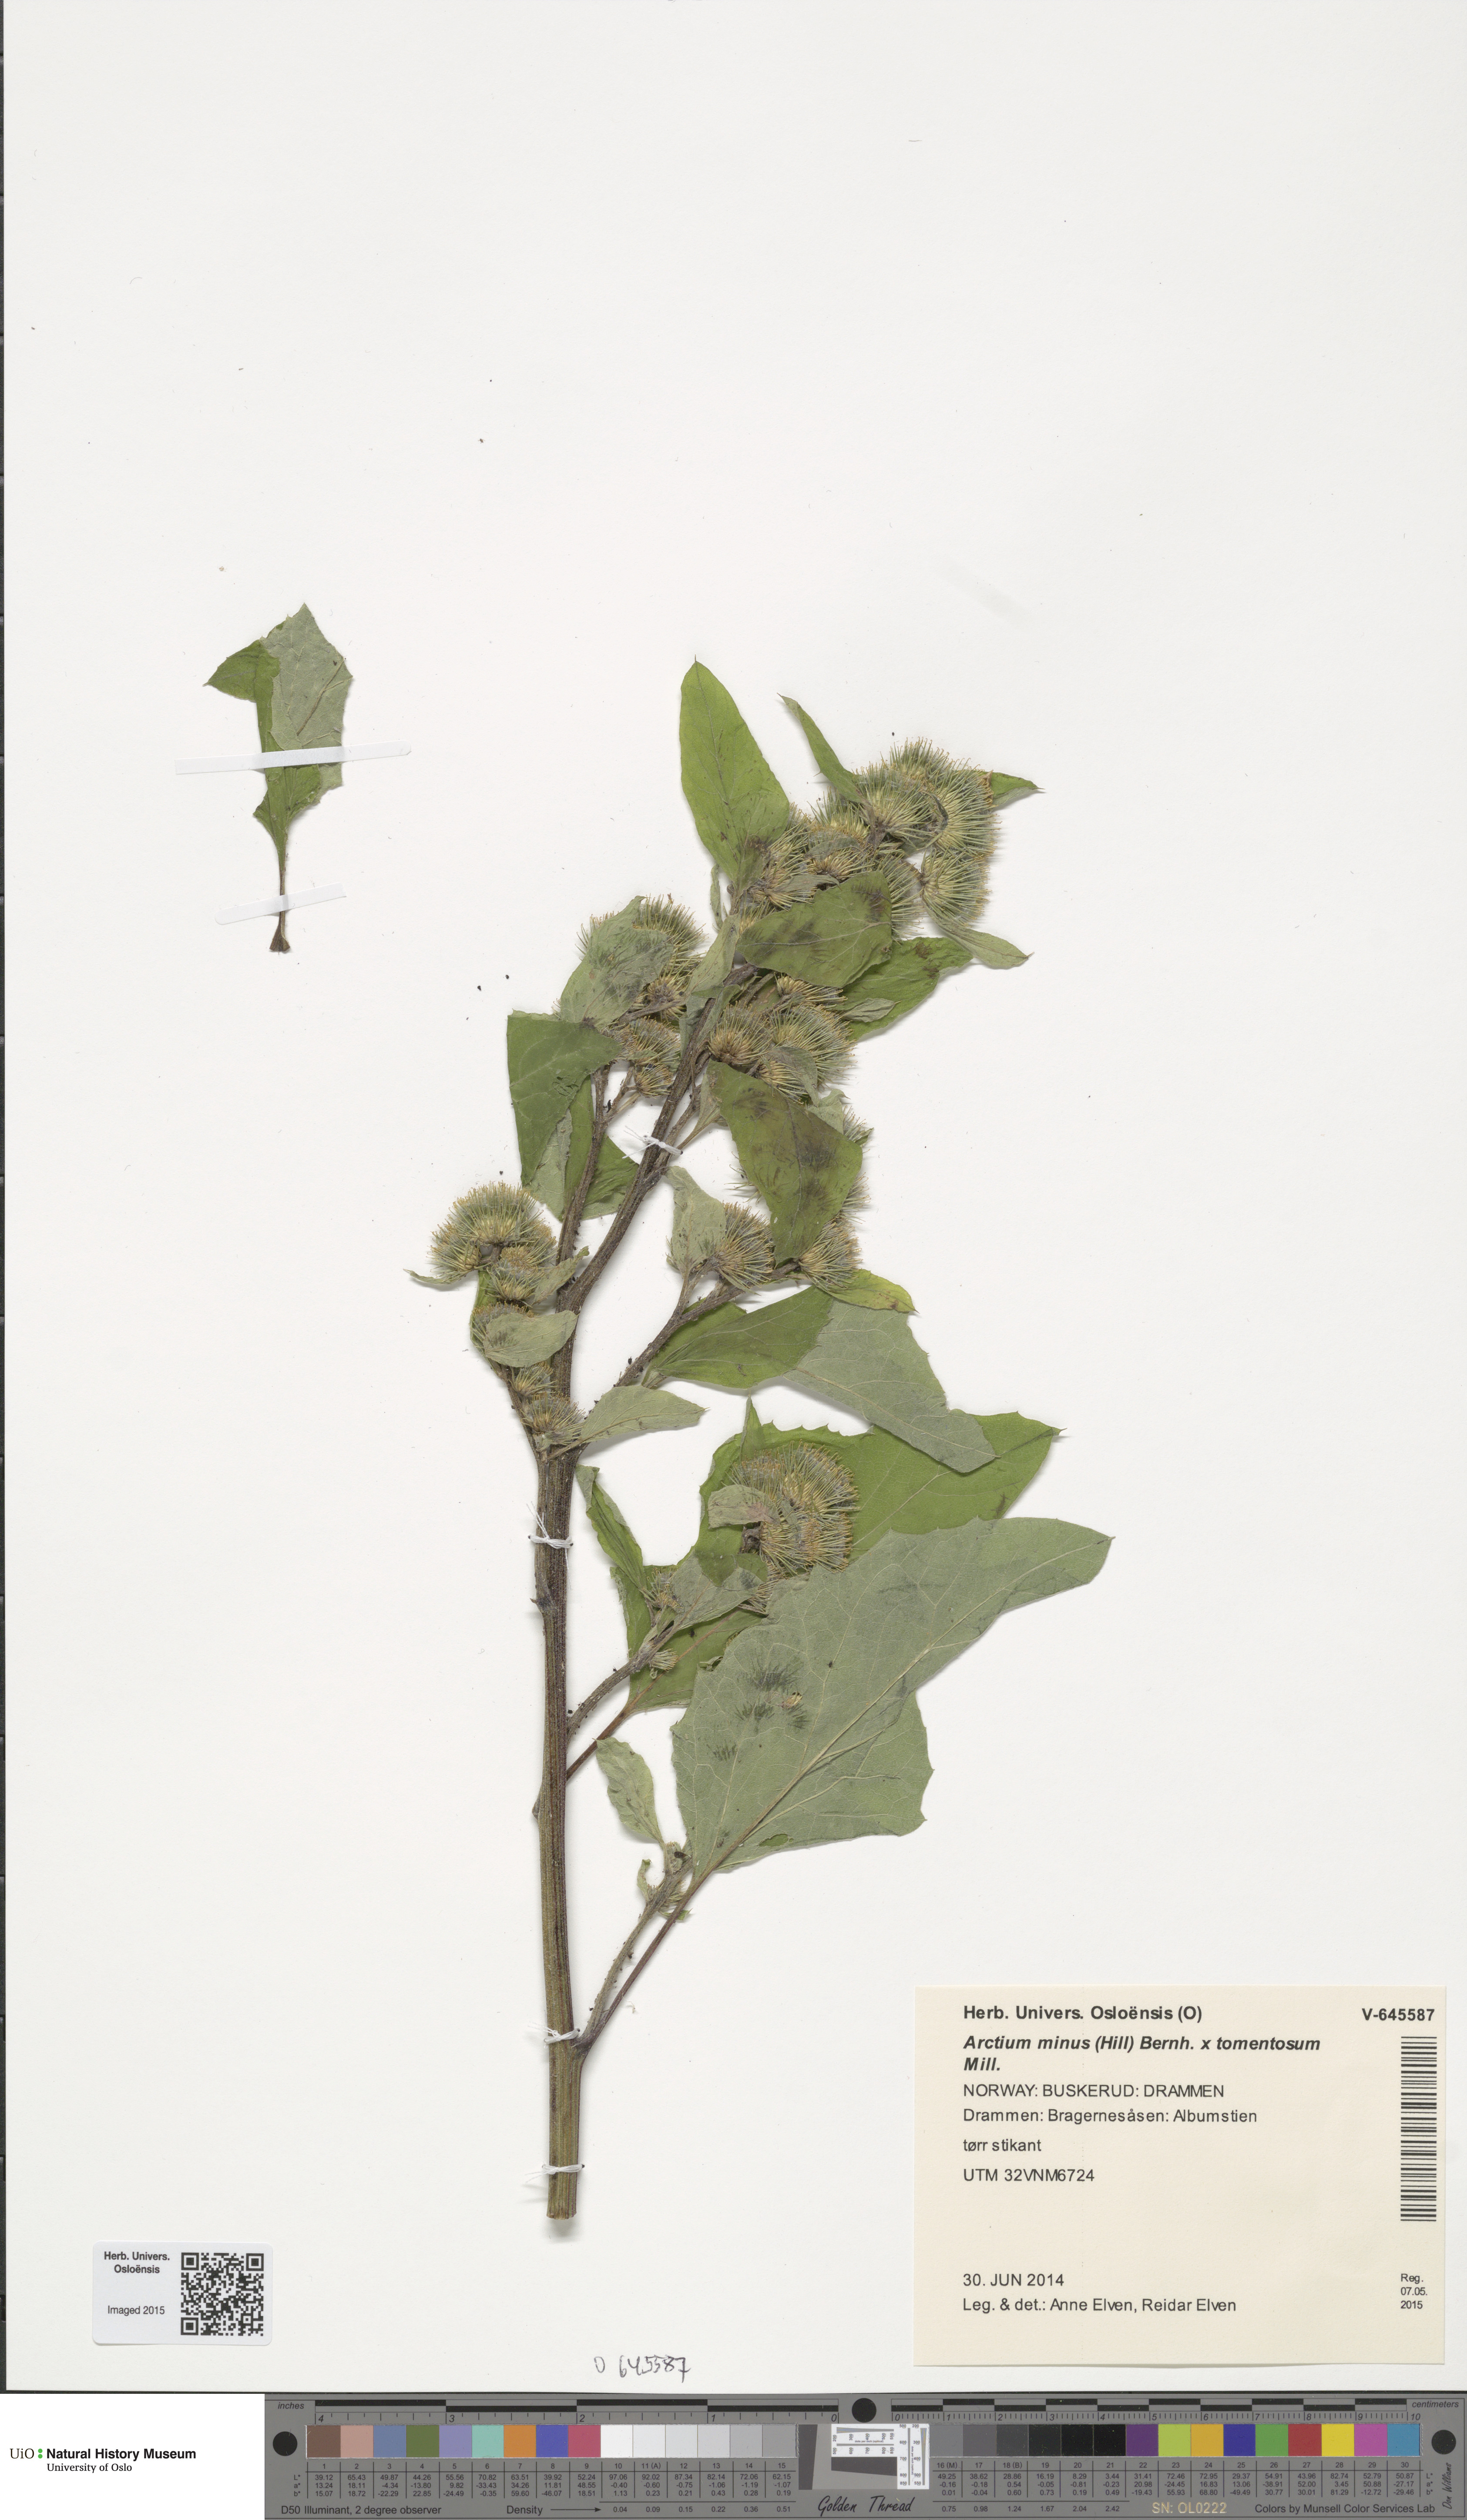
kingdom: Plantae
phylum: Tracheophyta
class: Magnoliopsida
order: Asterales
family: Asteraceae
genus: Arctium
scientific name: Arctium
